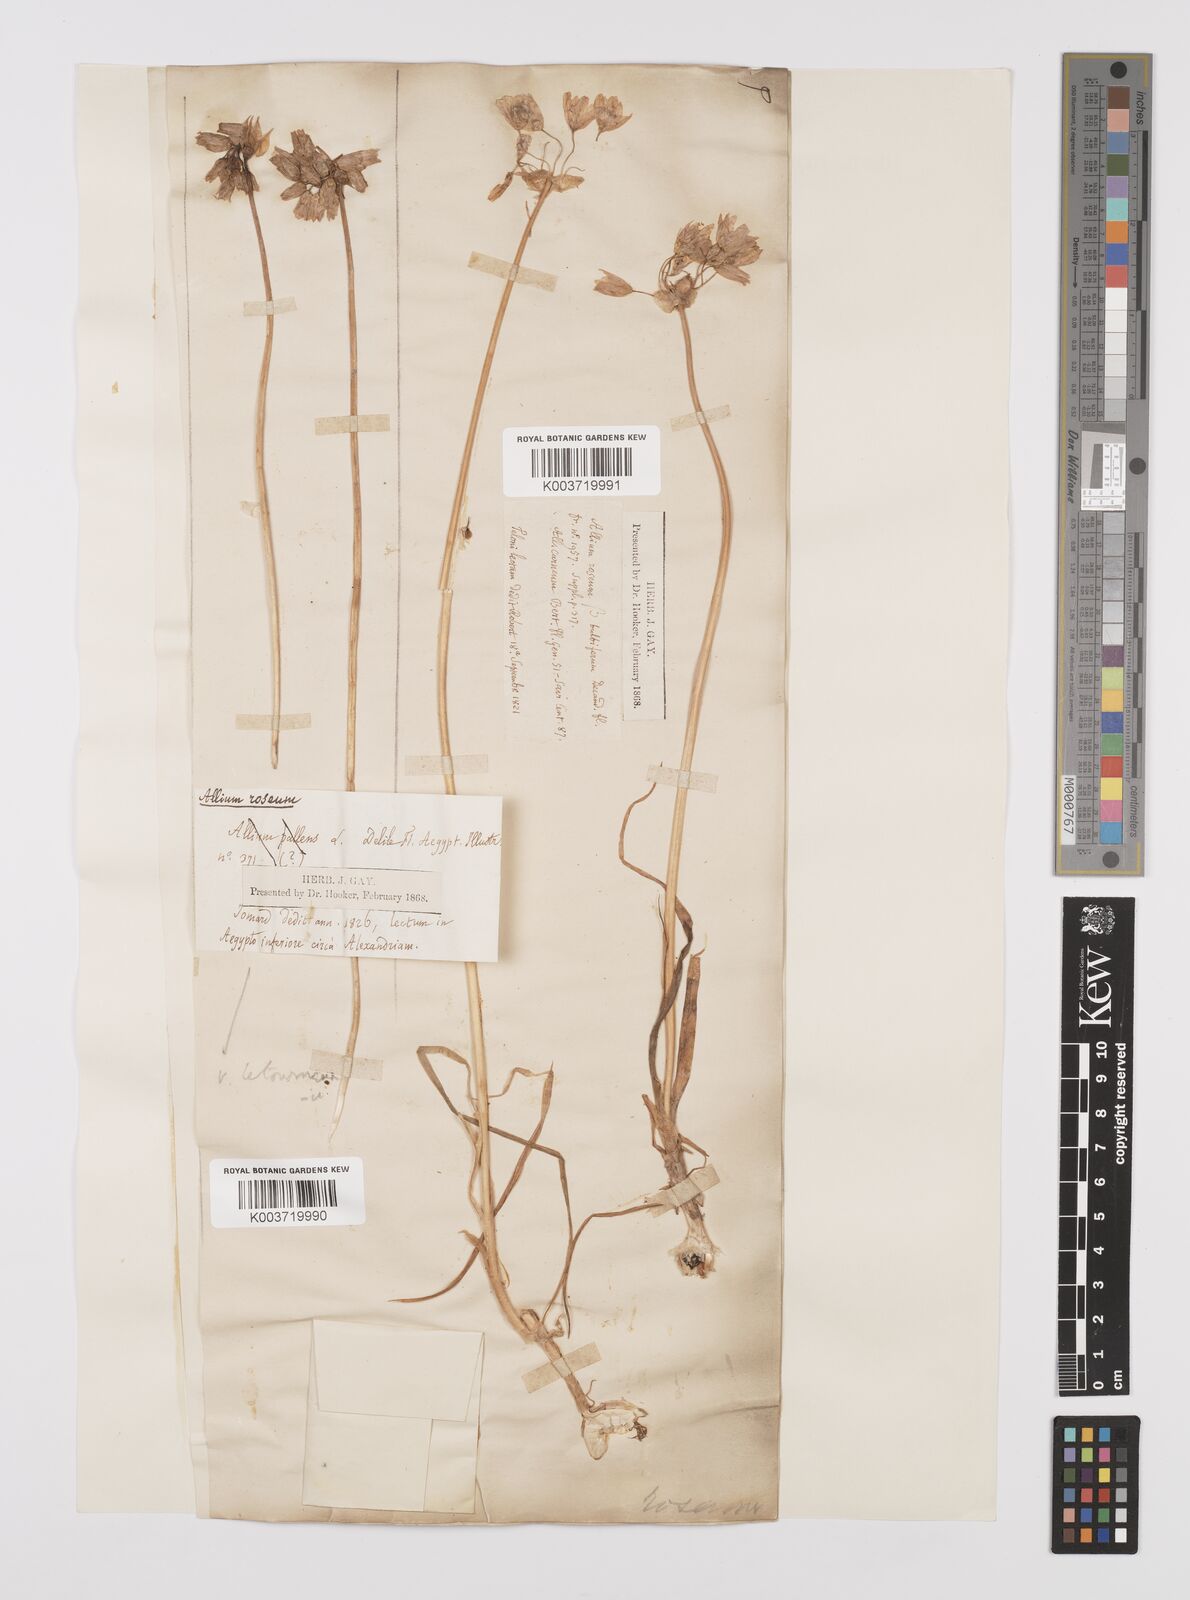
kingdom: Plantae
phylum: Tracheophyta
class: Liliopsida
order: Asparagales
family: Amaryllidaceae
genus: Allium
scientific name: Allium roseum
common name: Rosy garlic
